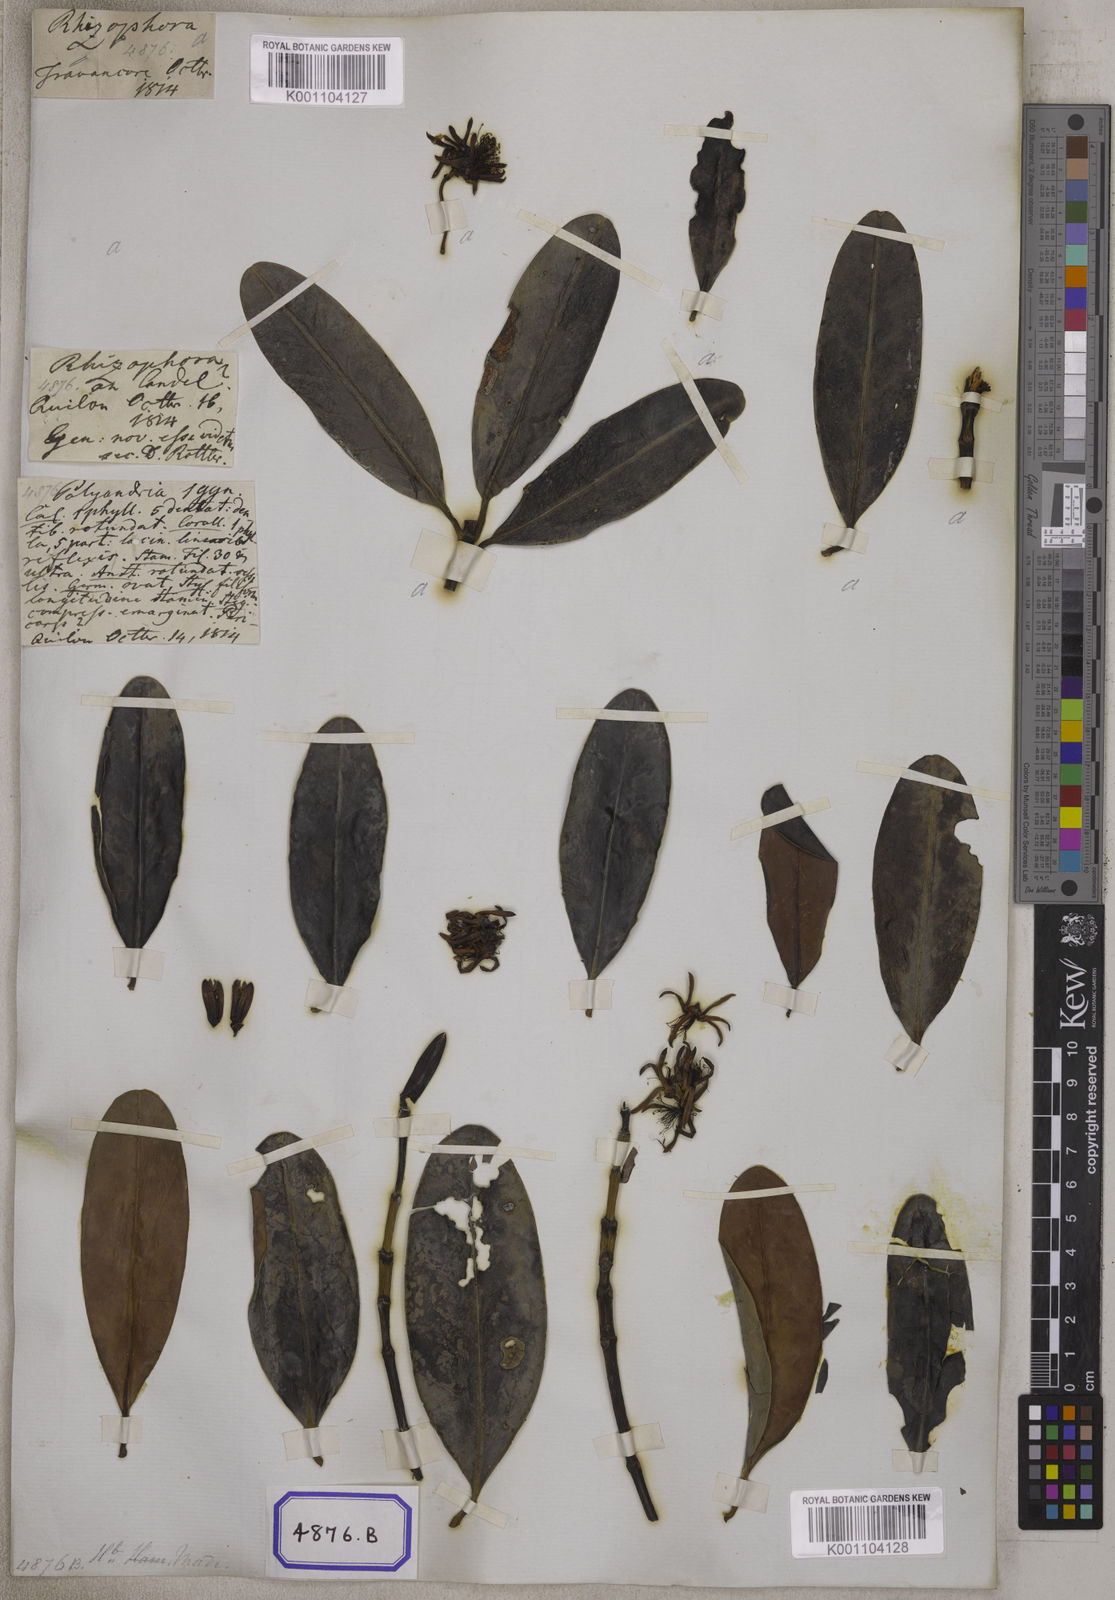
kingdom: Plantae
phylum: Tracheophyta
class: Magnoliopsida
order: Malpighiales
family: Rhizophoraceae
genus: Kandelia
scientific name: Kandelia candel
